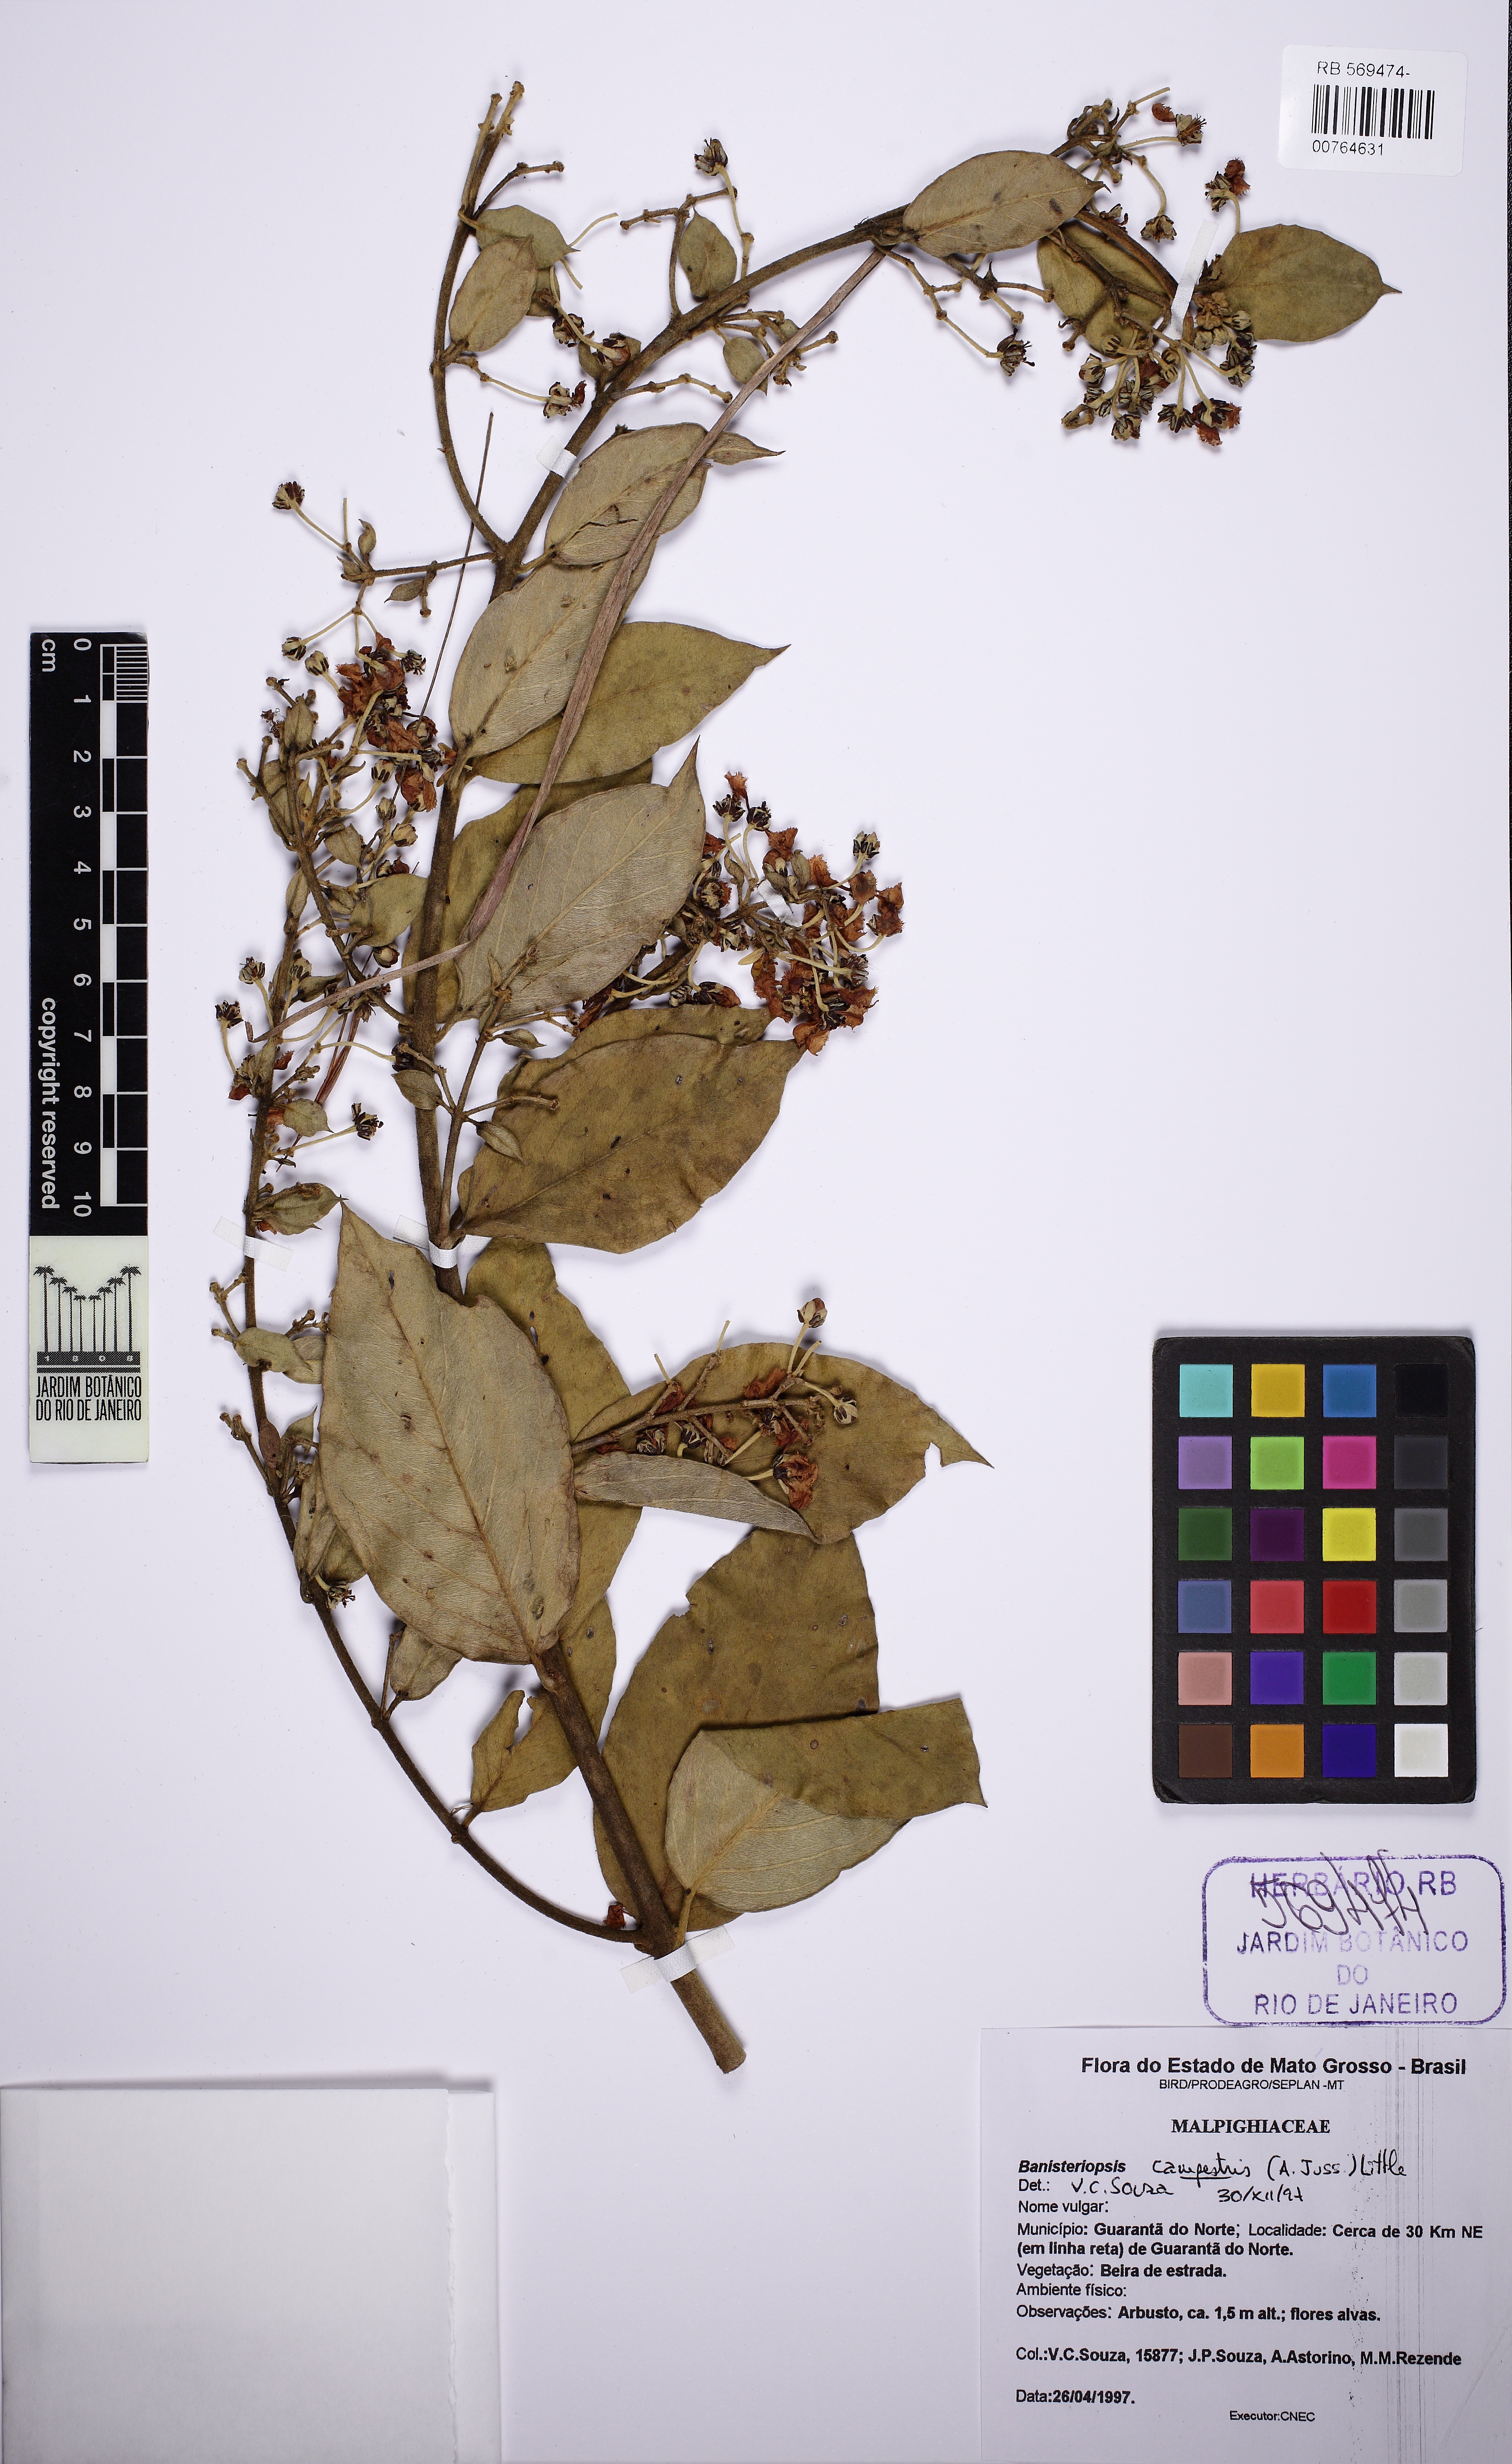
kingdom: Plantae
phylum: Tracheophyta
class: Magnoliopsida
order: Malpighiales
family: Malpighiaceae
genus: Banisteriopsis
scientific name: Banisteriopsis campestris
